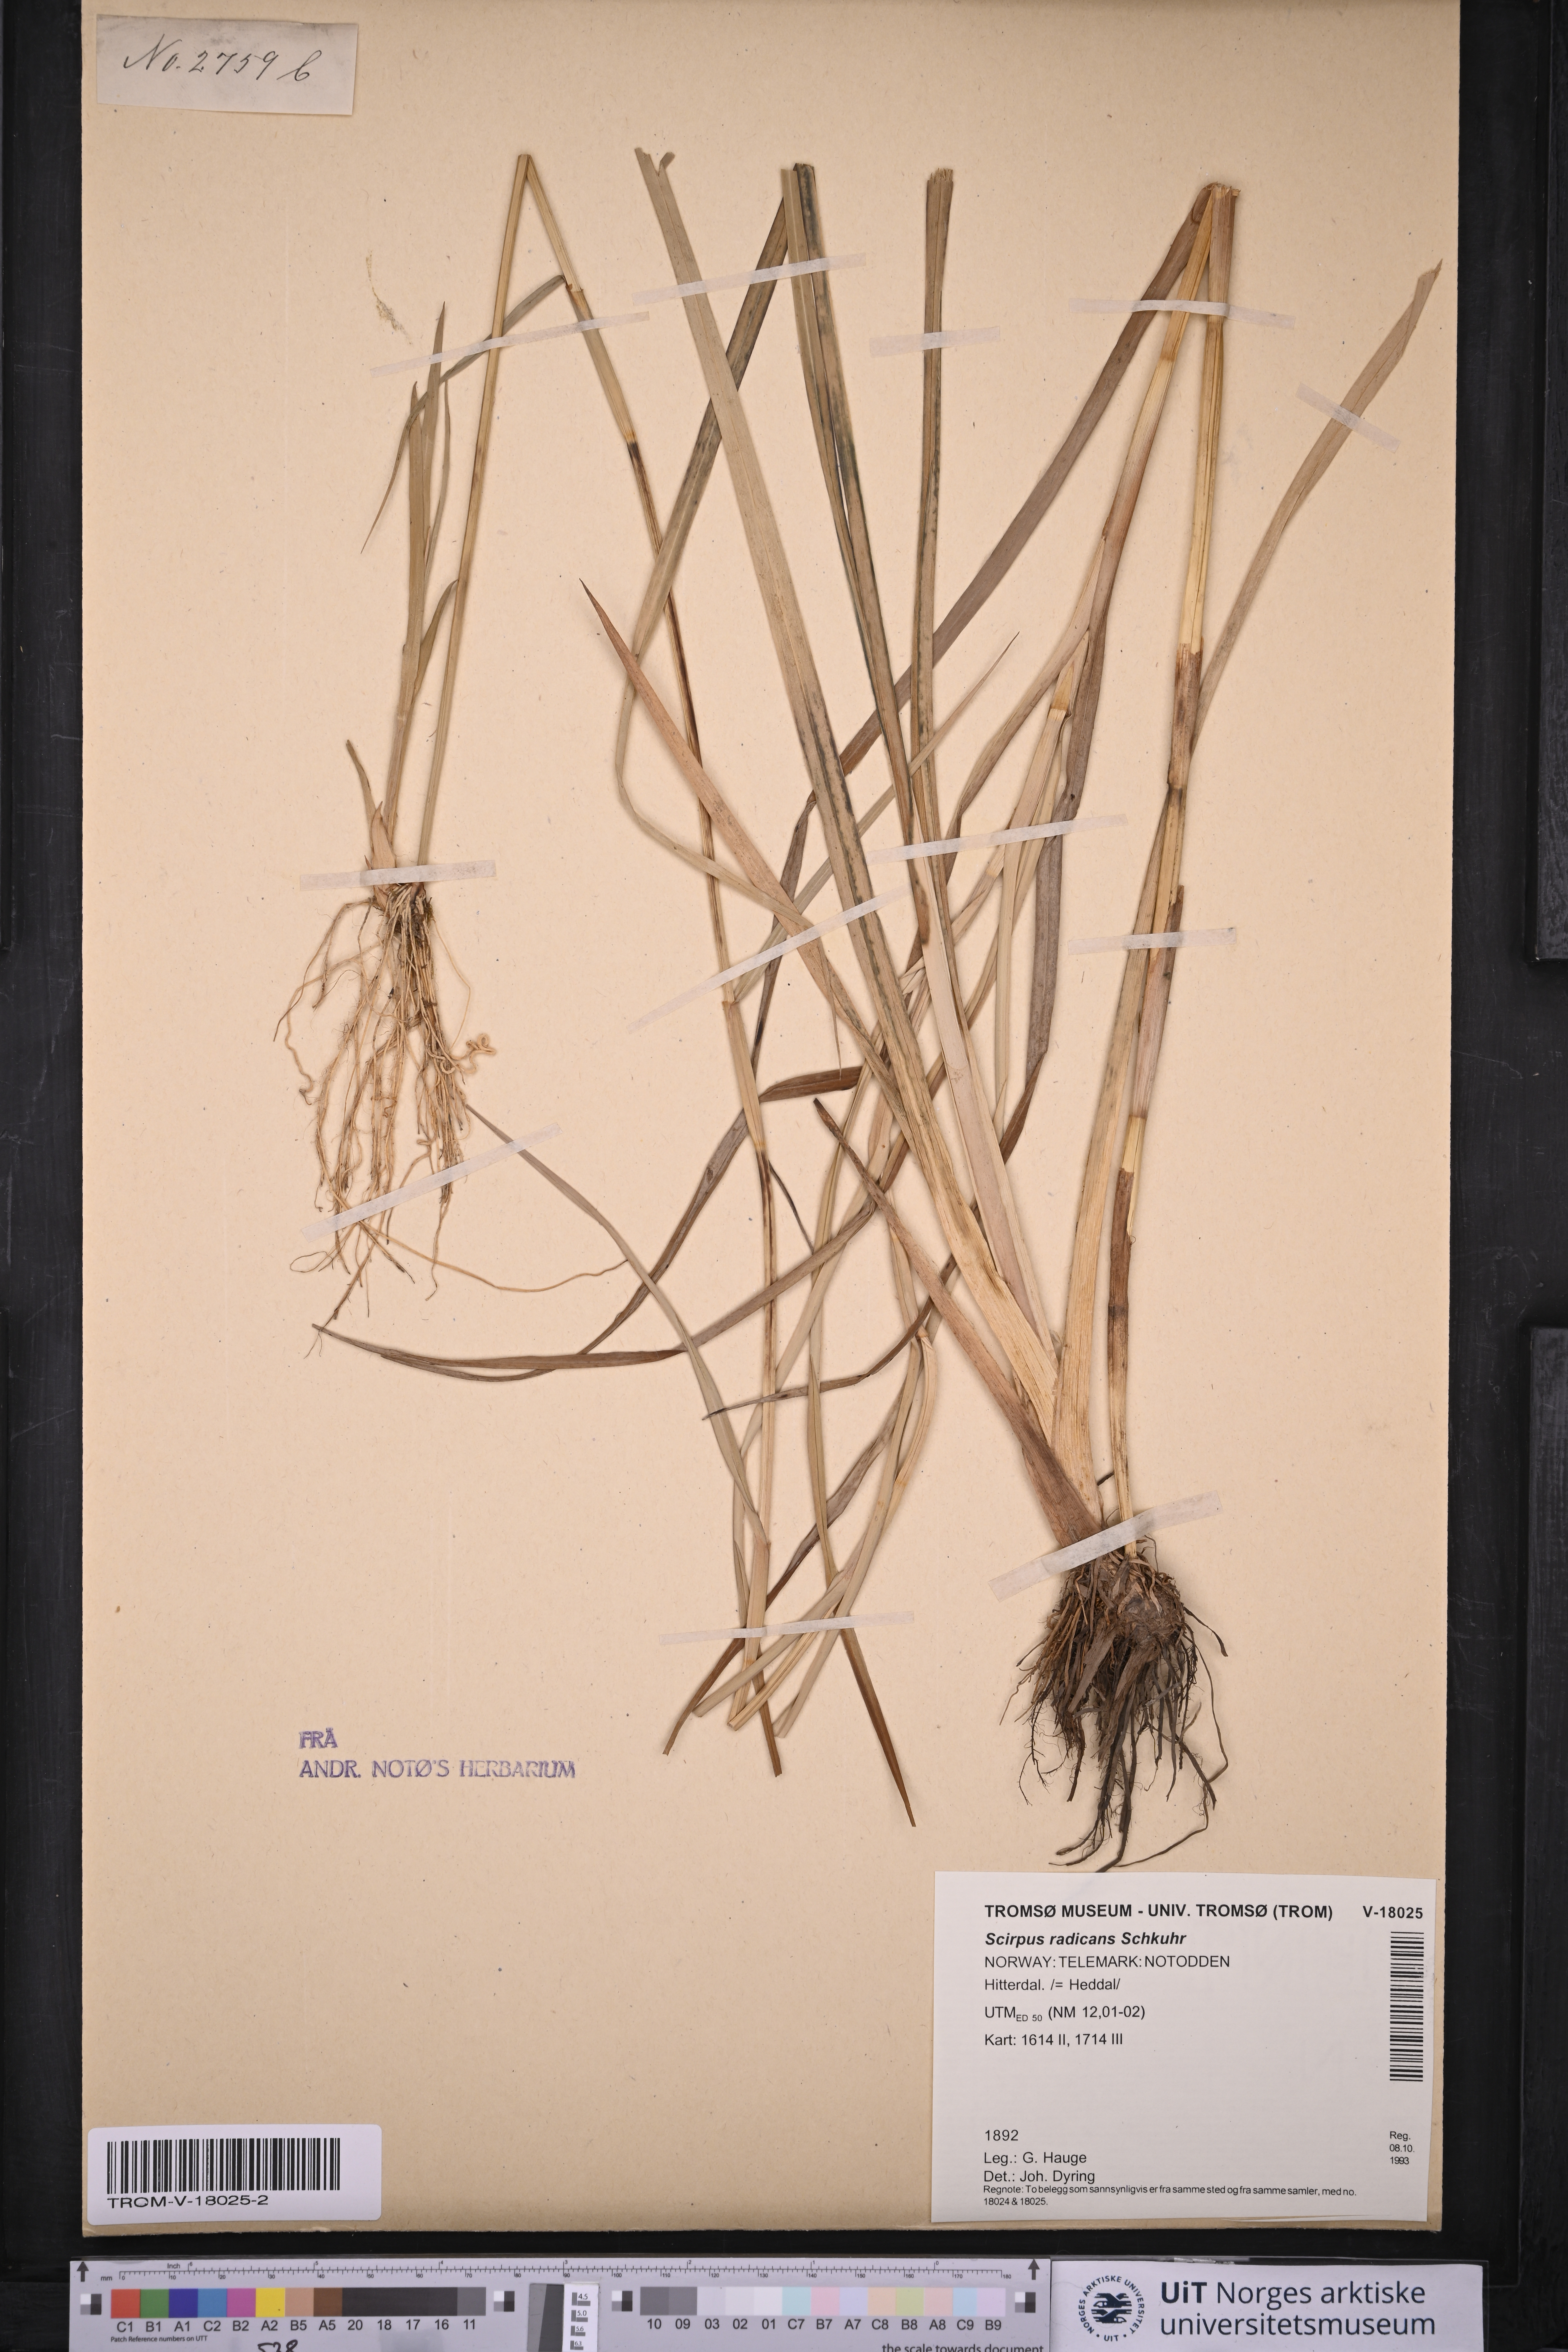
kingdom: Plantae
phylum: Tracheophyta
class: Liliopsida
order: Poales
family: Cyperaceae
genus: Scirpus
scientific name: Scirpus radicans
